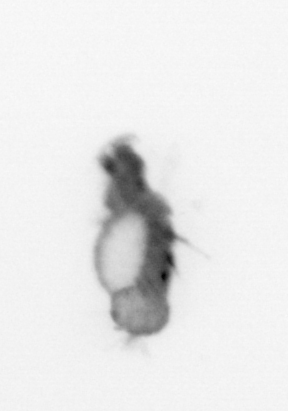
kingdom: Animalia
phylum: Annelida
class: Polychaeta
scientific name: Polychaeta
